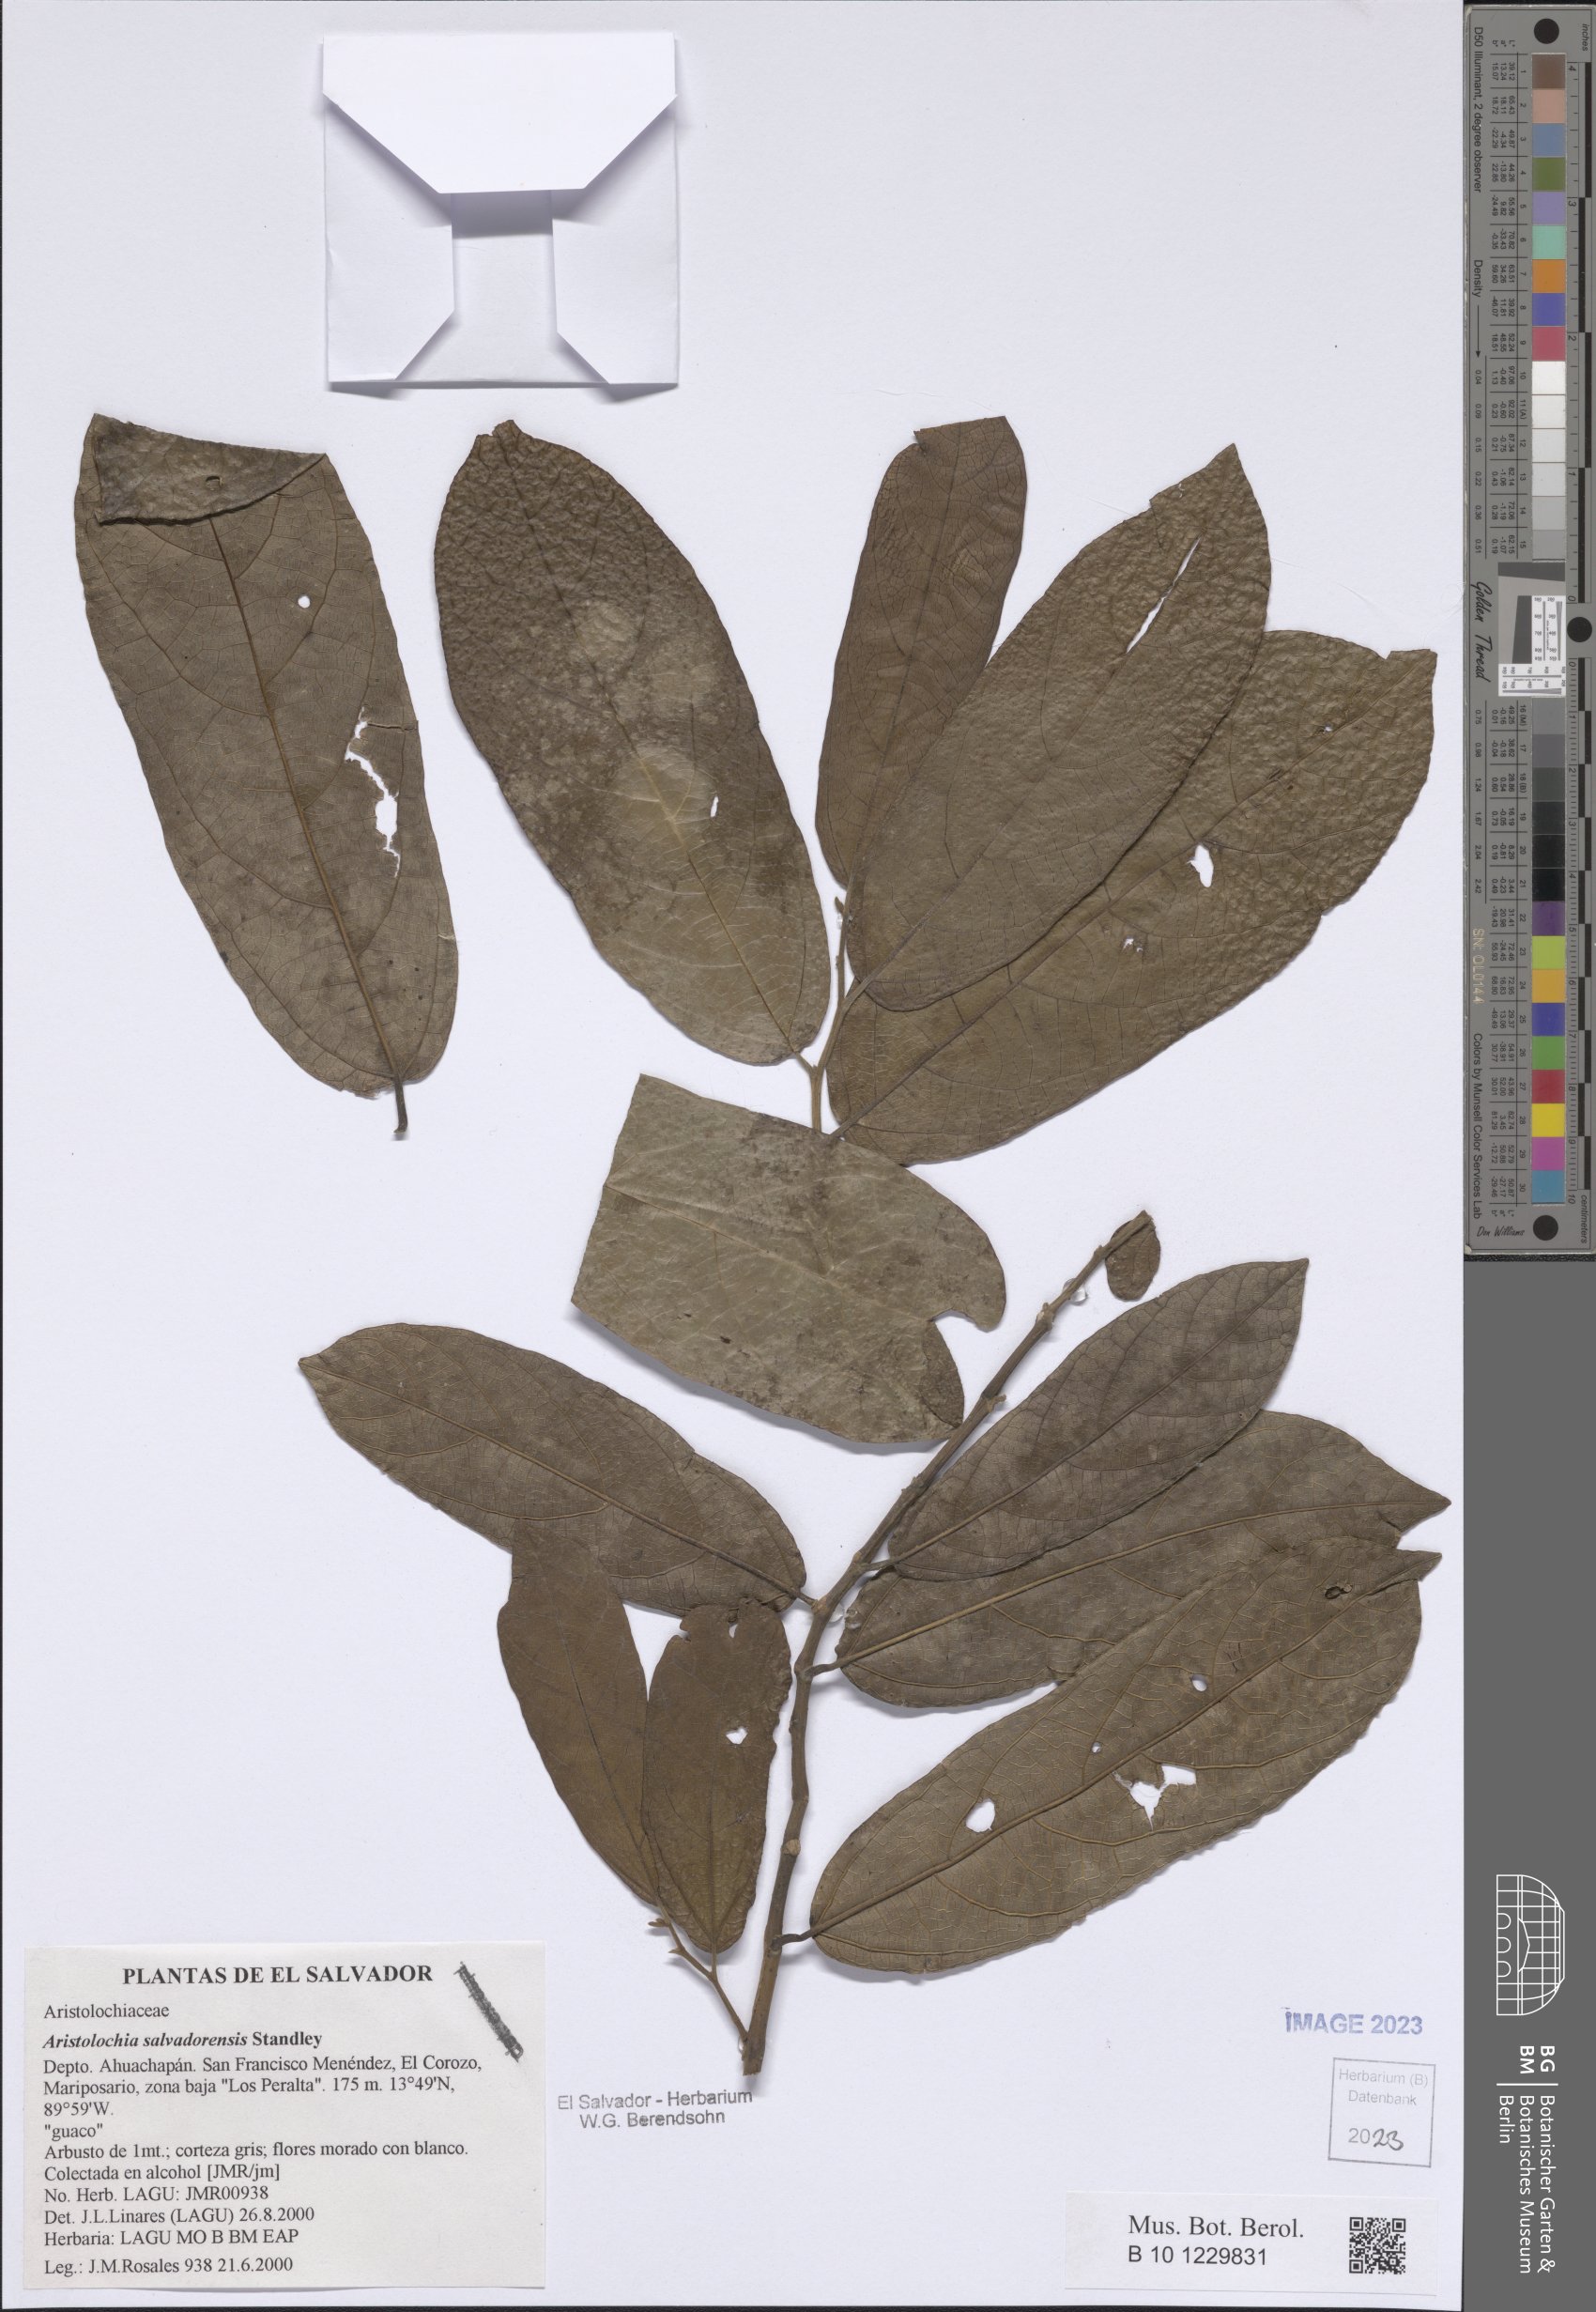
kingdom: Plantae
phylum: Tracheophyta
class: Magnoliopsida
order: Piperales
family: Aristolochiaceae
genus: Isotrema
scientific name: Isotrema arborea
